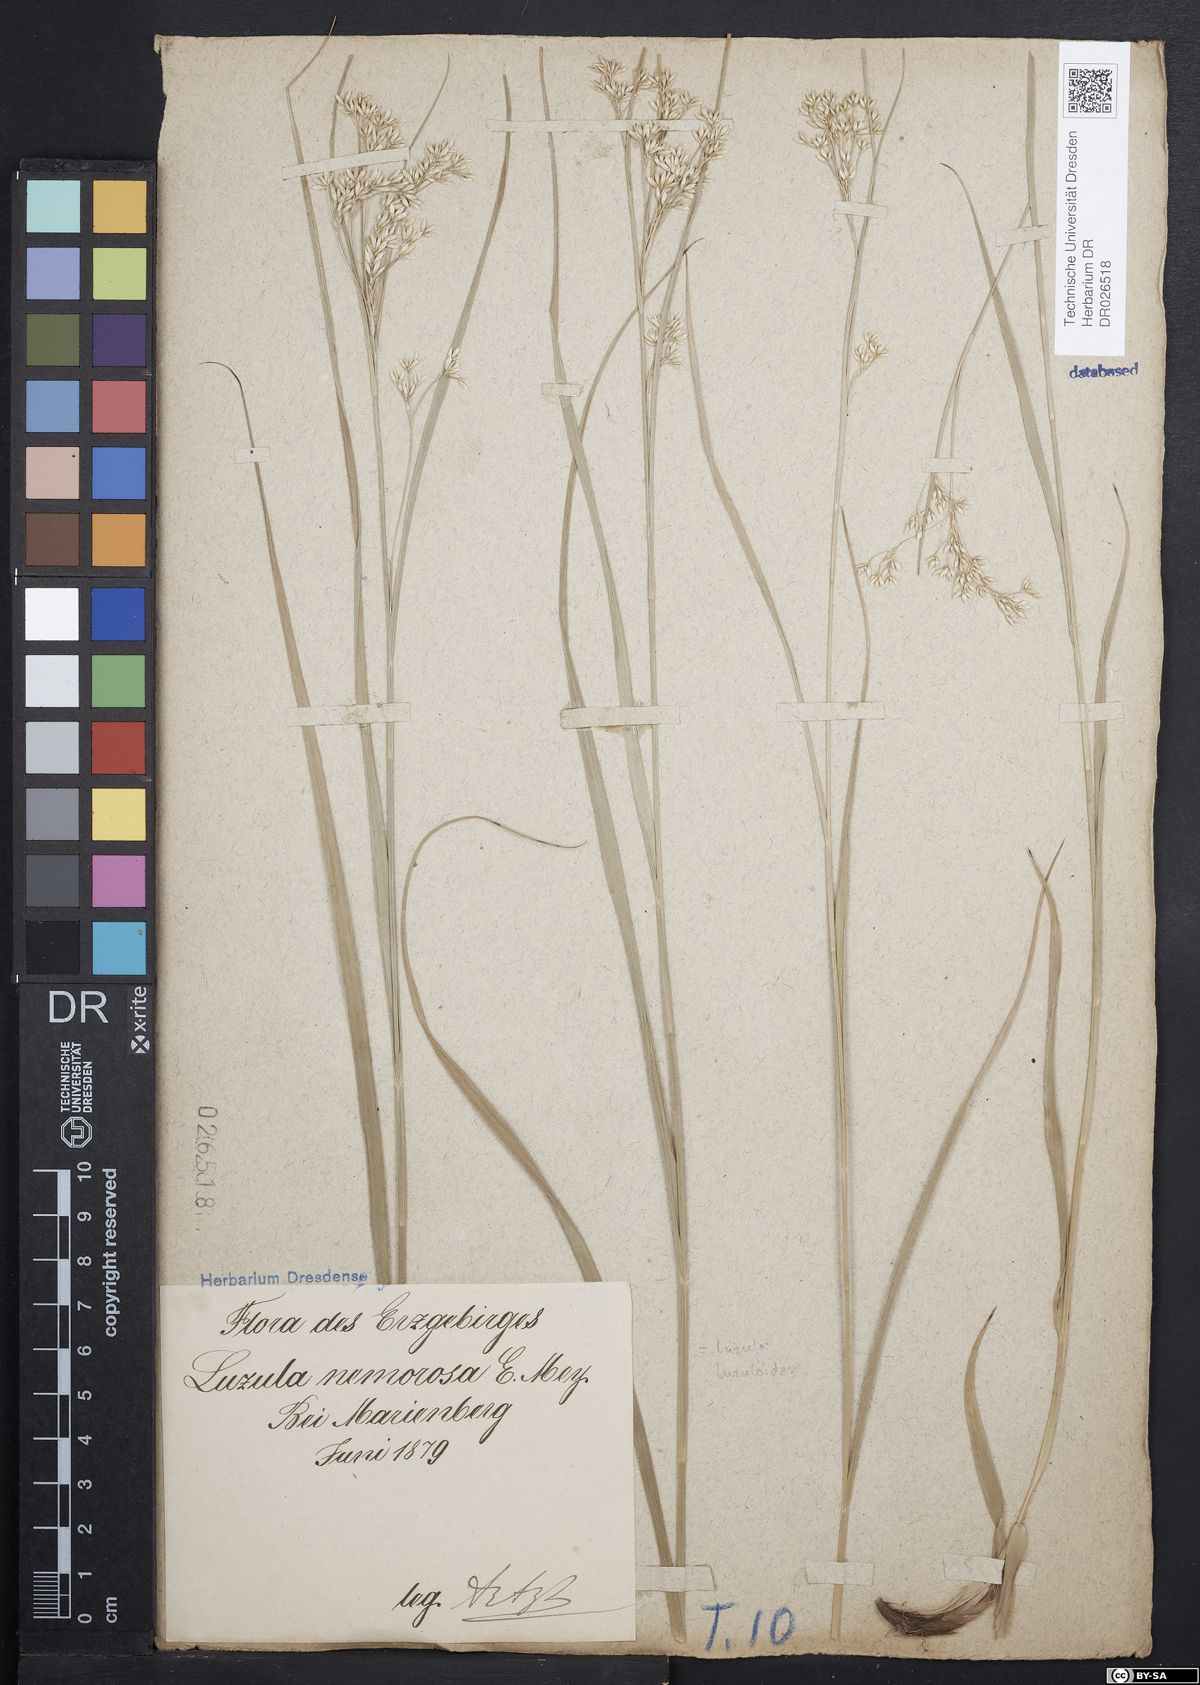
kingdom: Plantae
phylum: Tracheophyta
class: Liliopsida
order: Poales
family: Juncaceae
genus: Luzula
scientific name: Luzula luzuloides
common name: White wood-rush
